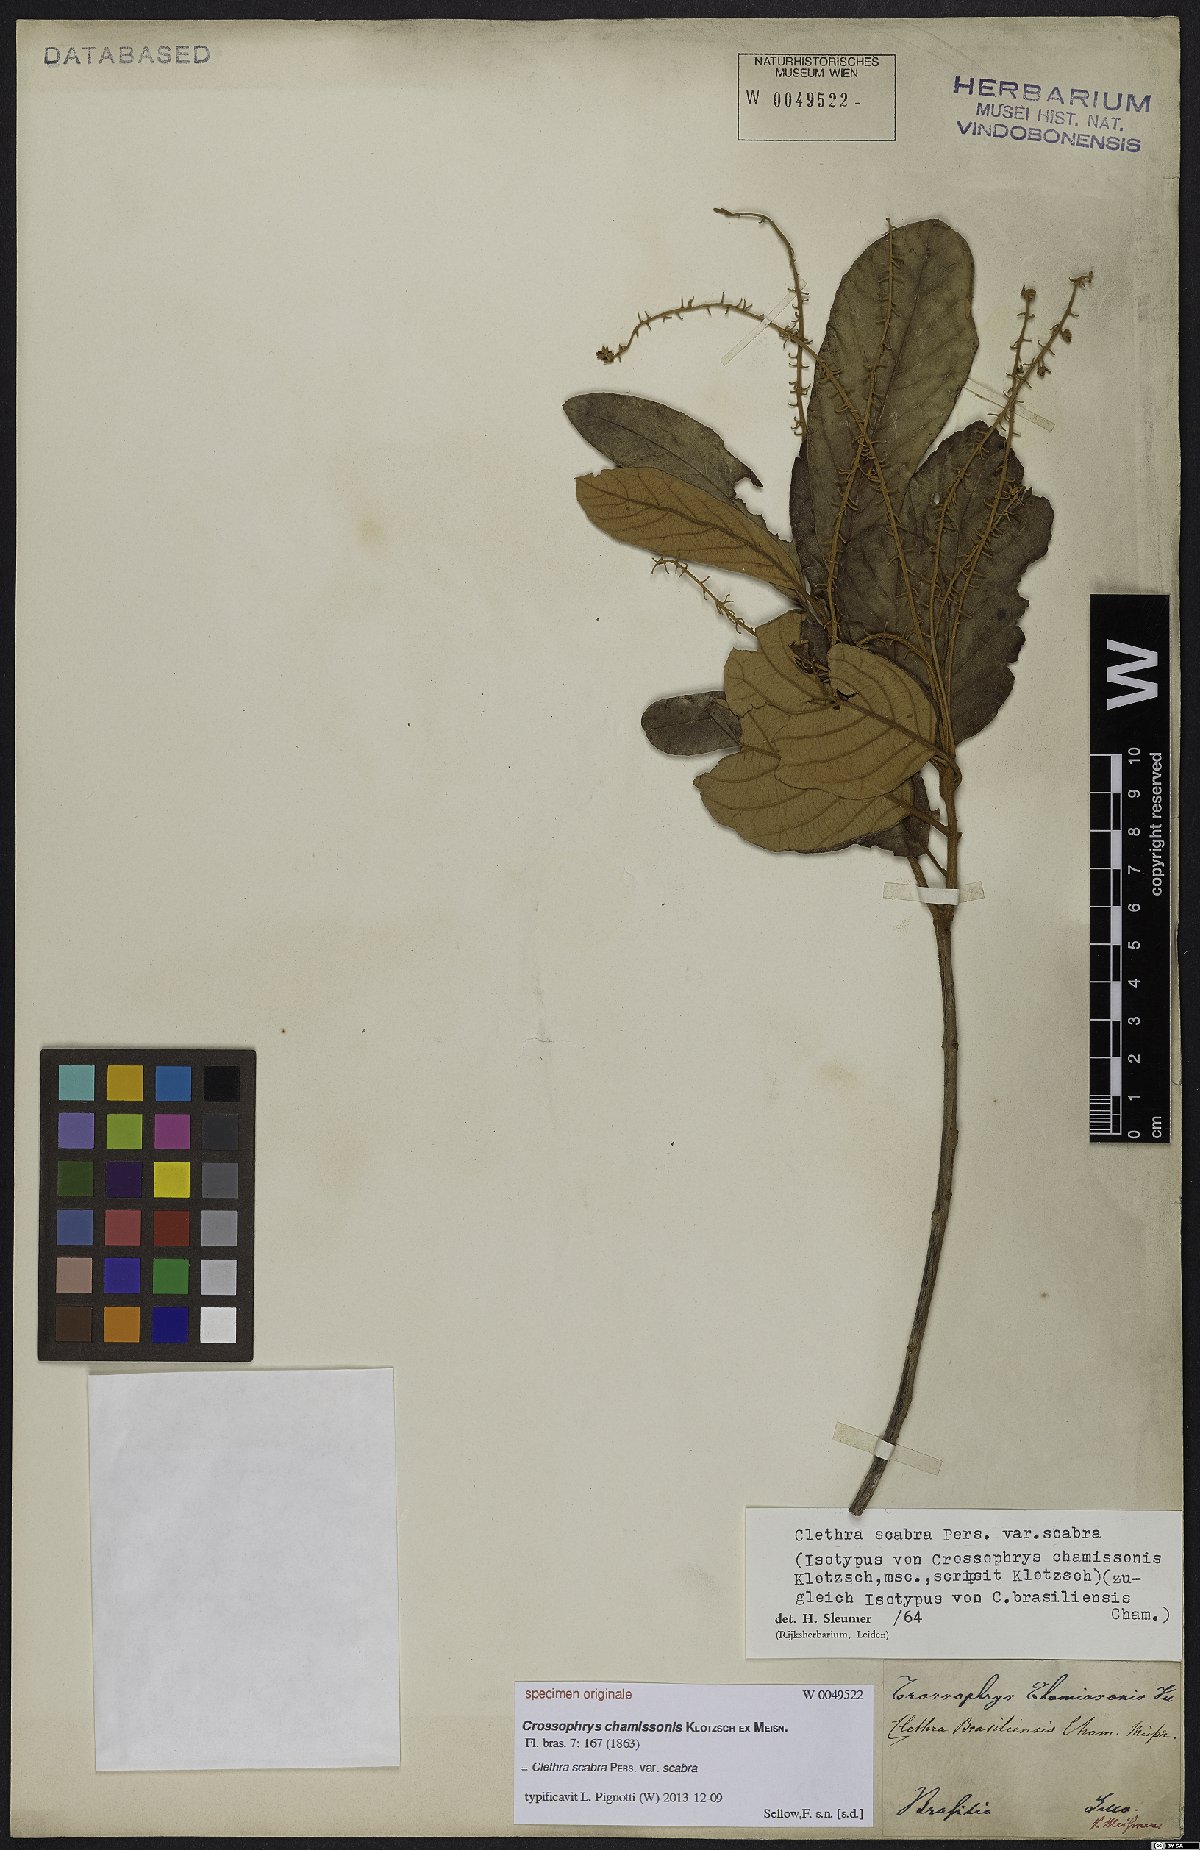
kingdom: Plantae
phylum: Tracheophyta
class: Magnoliopsida
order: Ericales
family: Clethraceae
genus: Clethra
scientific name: Clethra scabra
